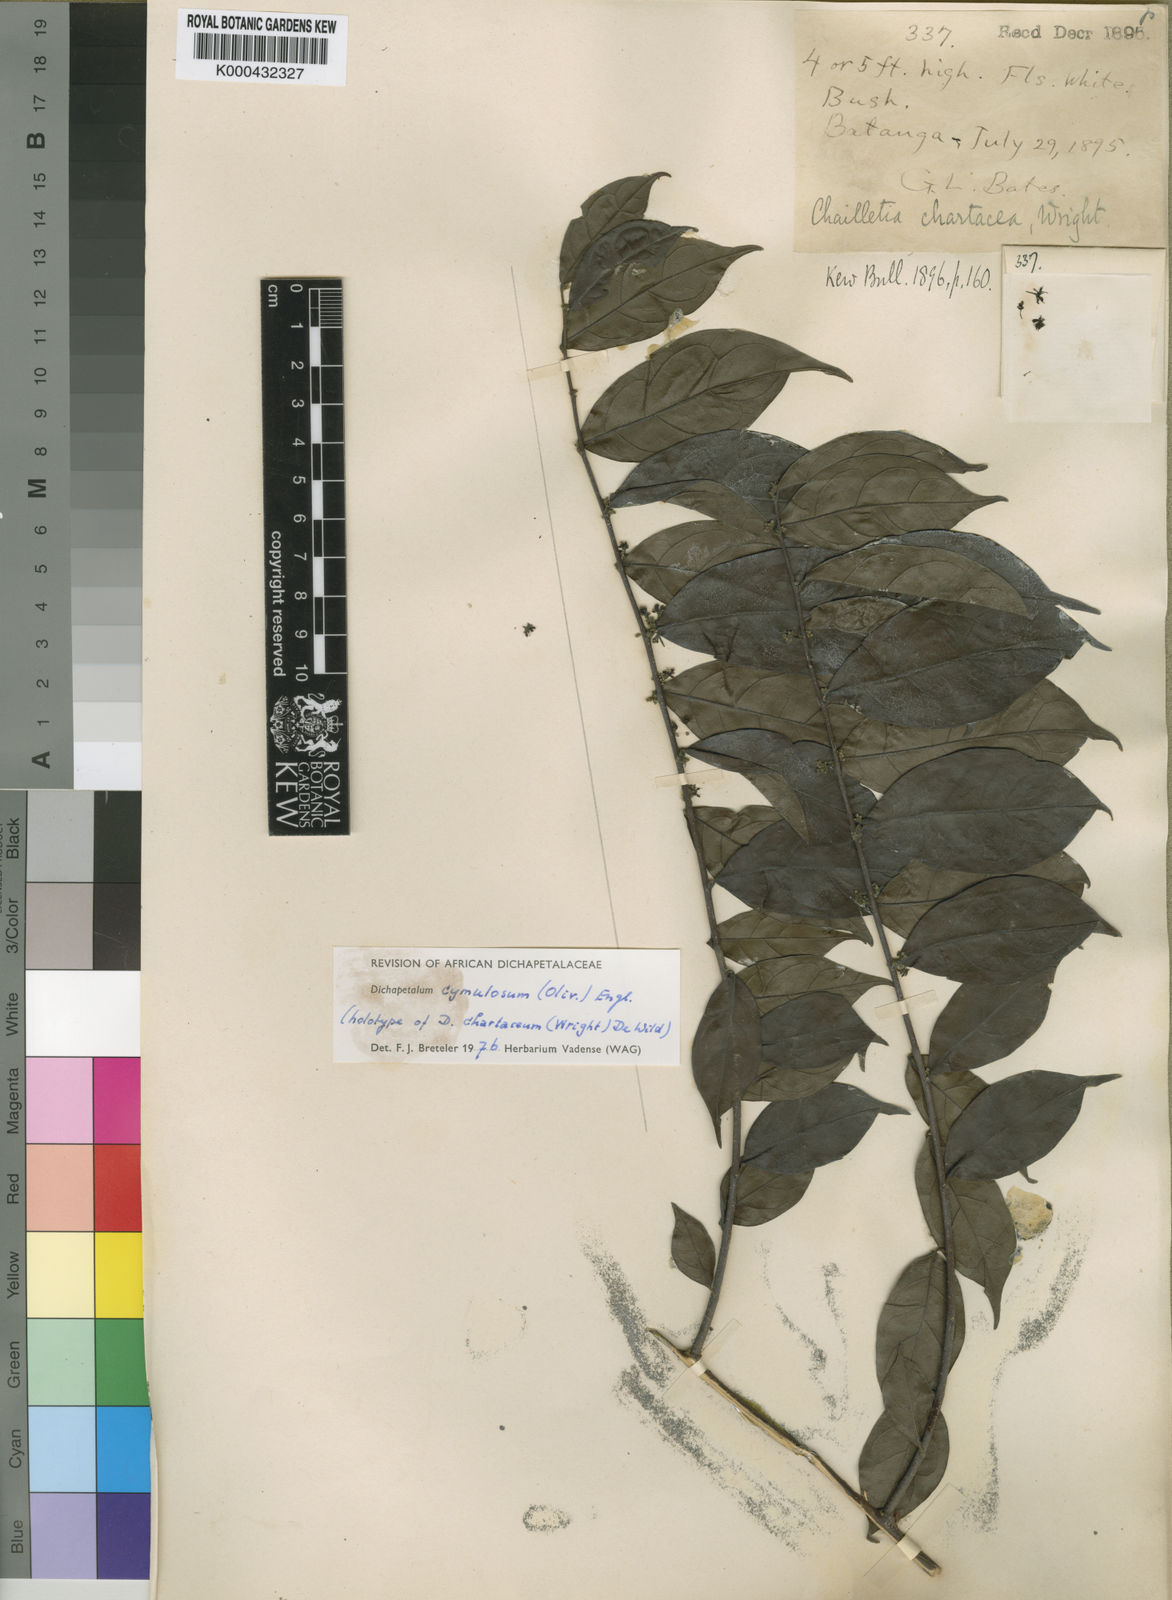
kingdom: Plantae
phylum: Tracheophyta
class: Magnoliopsida
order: Malpighiales
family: Dichapetalaceae
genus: Dichapetalum
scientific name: Dichapetalum cymulosum
